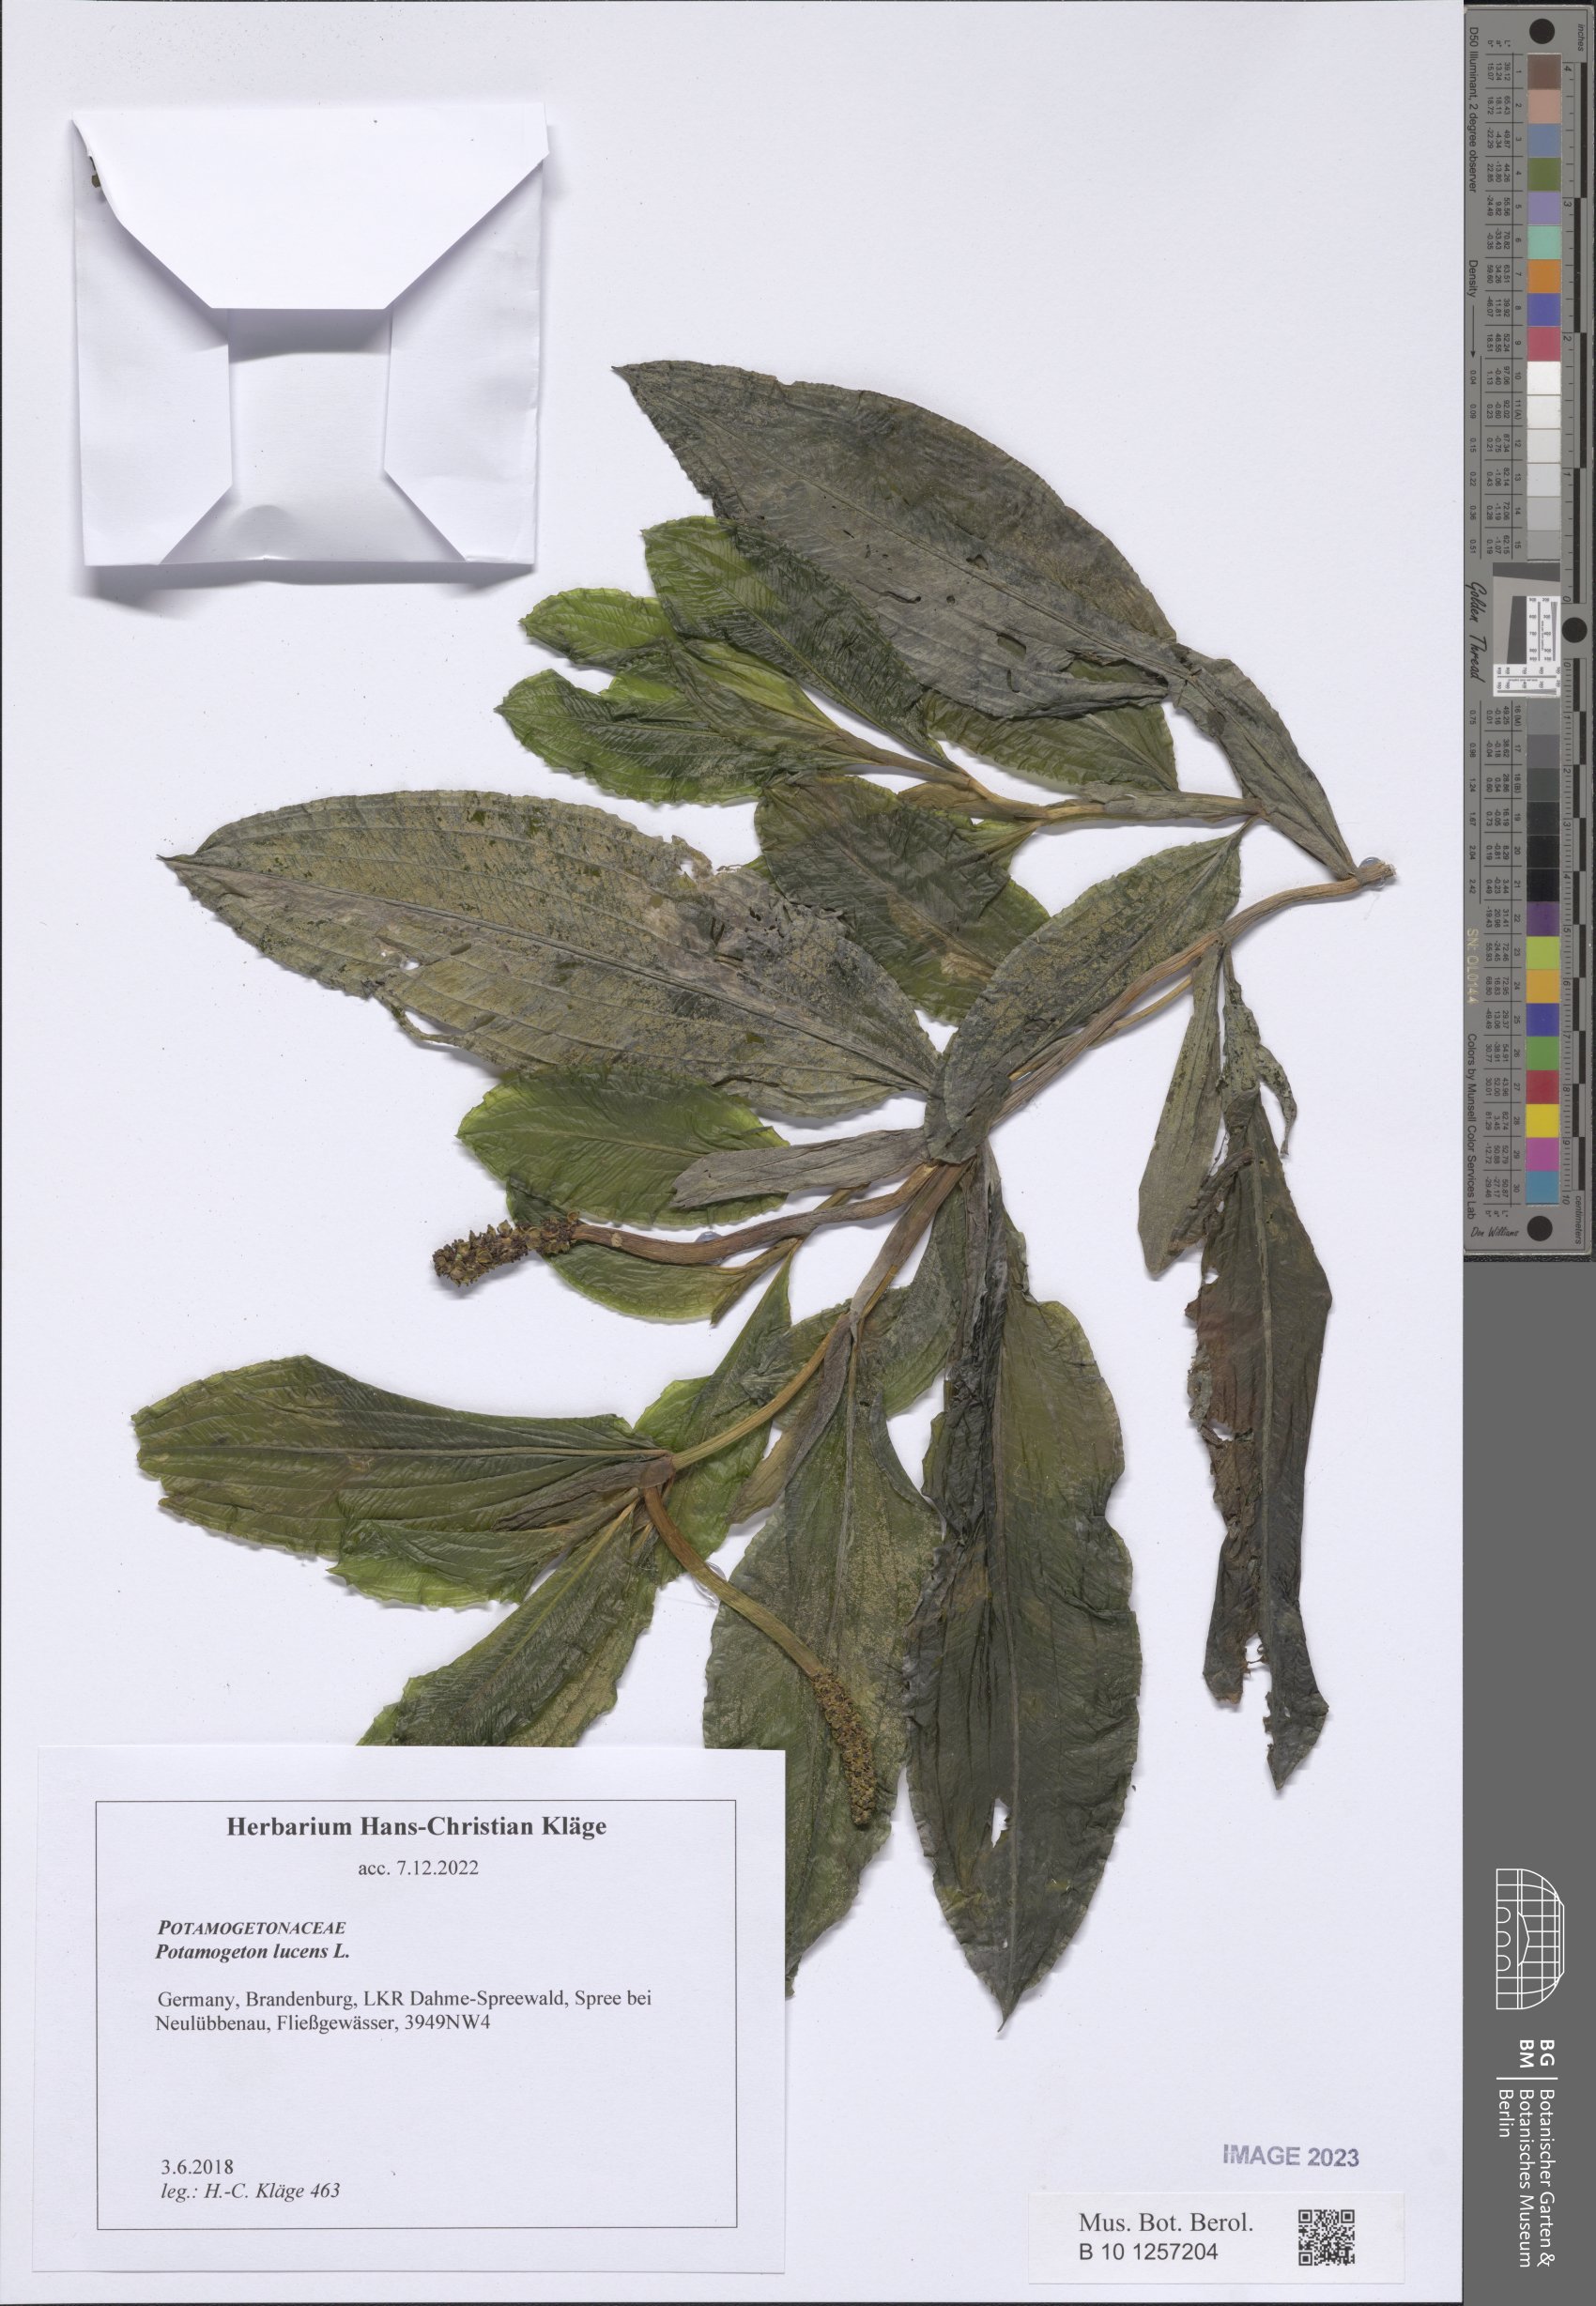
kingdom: Plantae
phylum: Tracheophyta
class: Liliopsida
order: Alismatales
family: Potamogetonaceae
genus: Potamogeton
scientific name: Potamogeton lucens
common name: Shining pondweed
